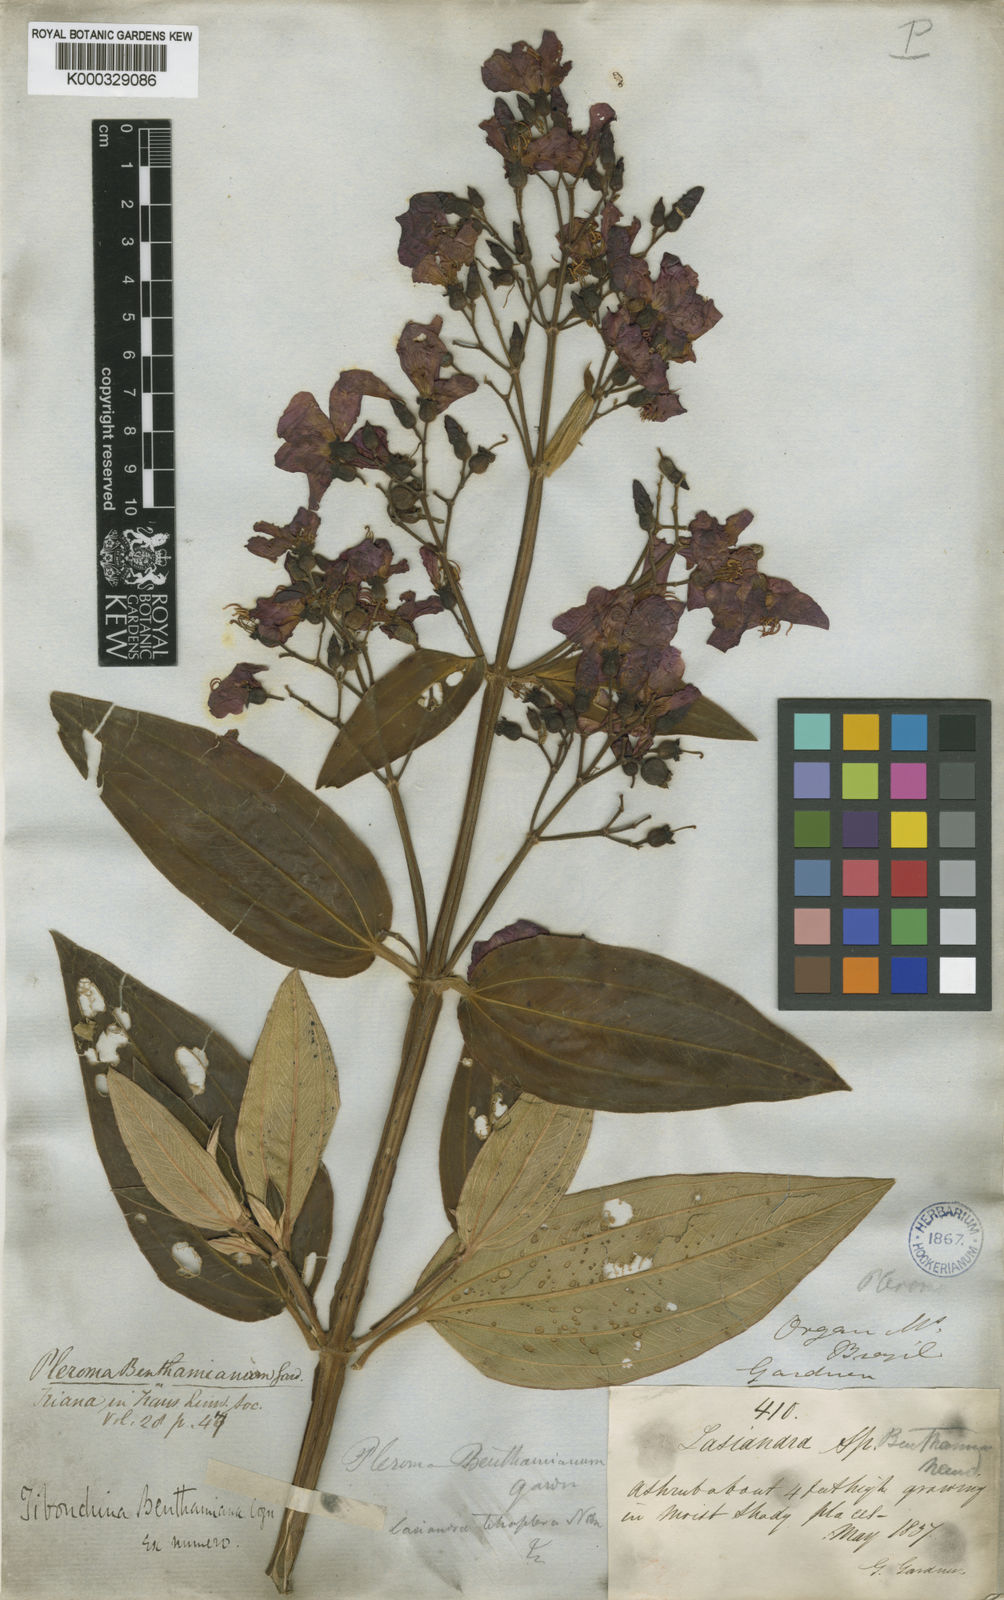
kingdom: Plantae
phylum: Tracheophyta
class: Magnoliopsida
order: Myrtales
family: Melastomataceae
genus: Pleroma
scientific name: Pleroma benthamianum
